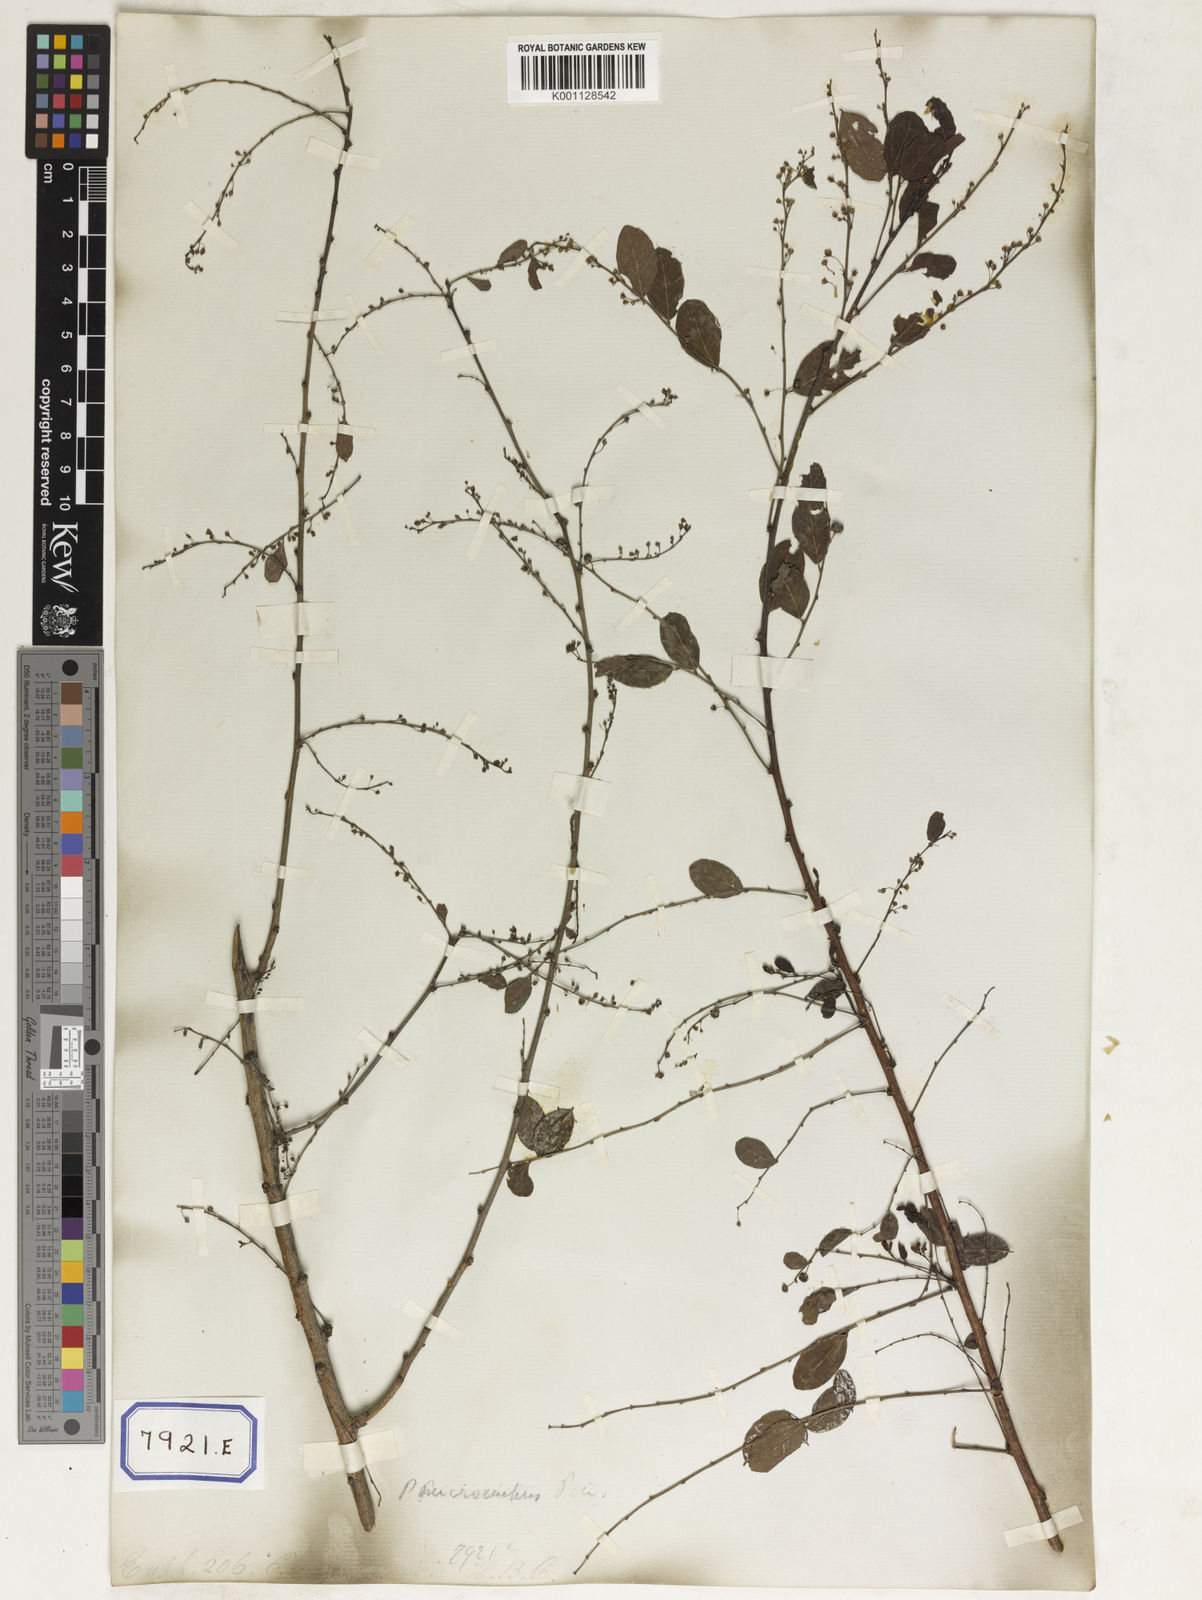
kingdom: Plantae
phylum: Tracheophyta
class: Magnoliopsida
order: Malpighiales
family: Euphorbiaceae
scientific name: Euphorbiaceae
